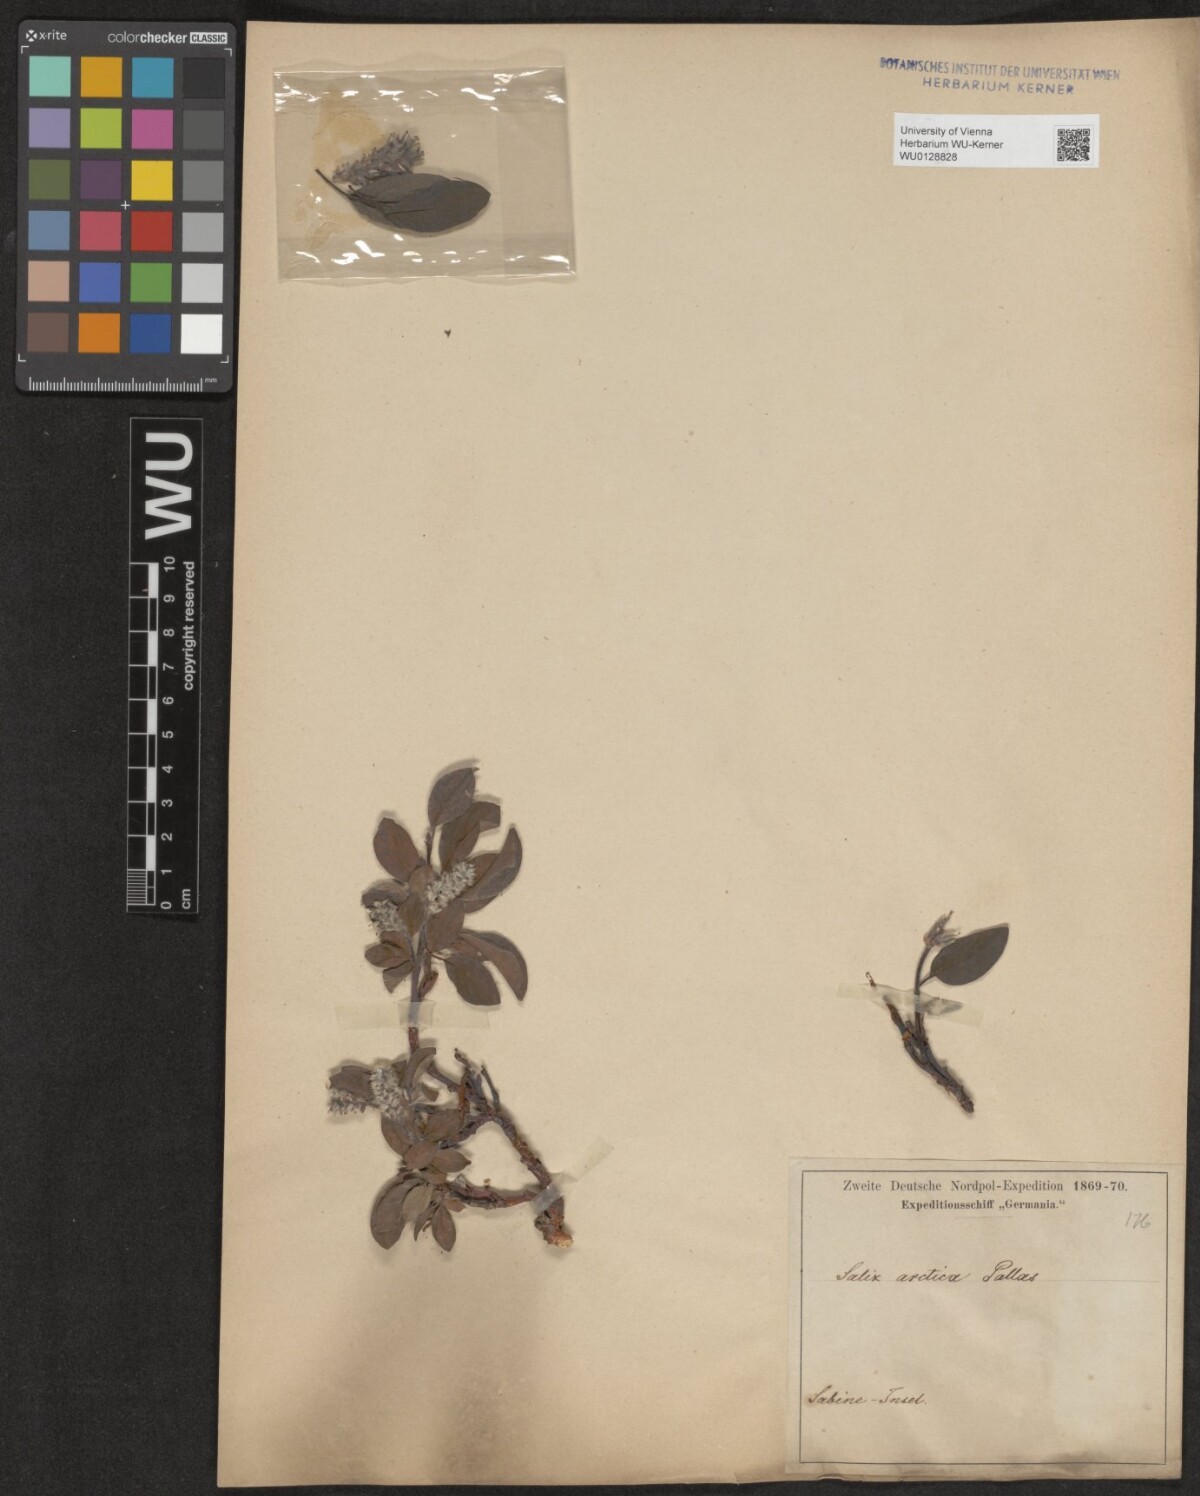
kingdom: Plantae
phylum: Tracheophyta
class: Magnoliopsida
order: Malpighiales
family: Salicaceae
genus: Salix
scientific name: Salix arctica
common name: Arctic willow
